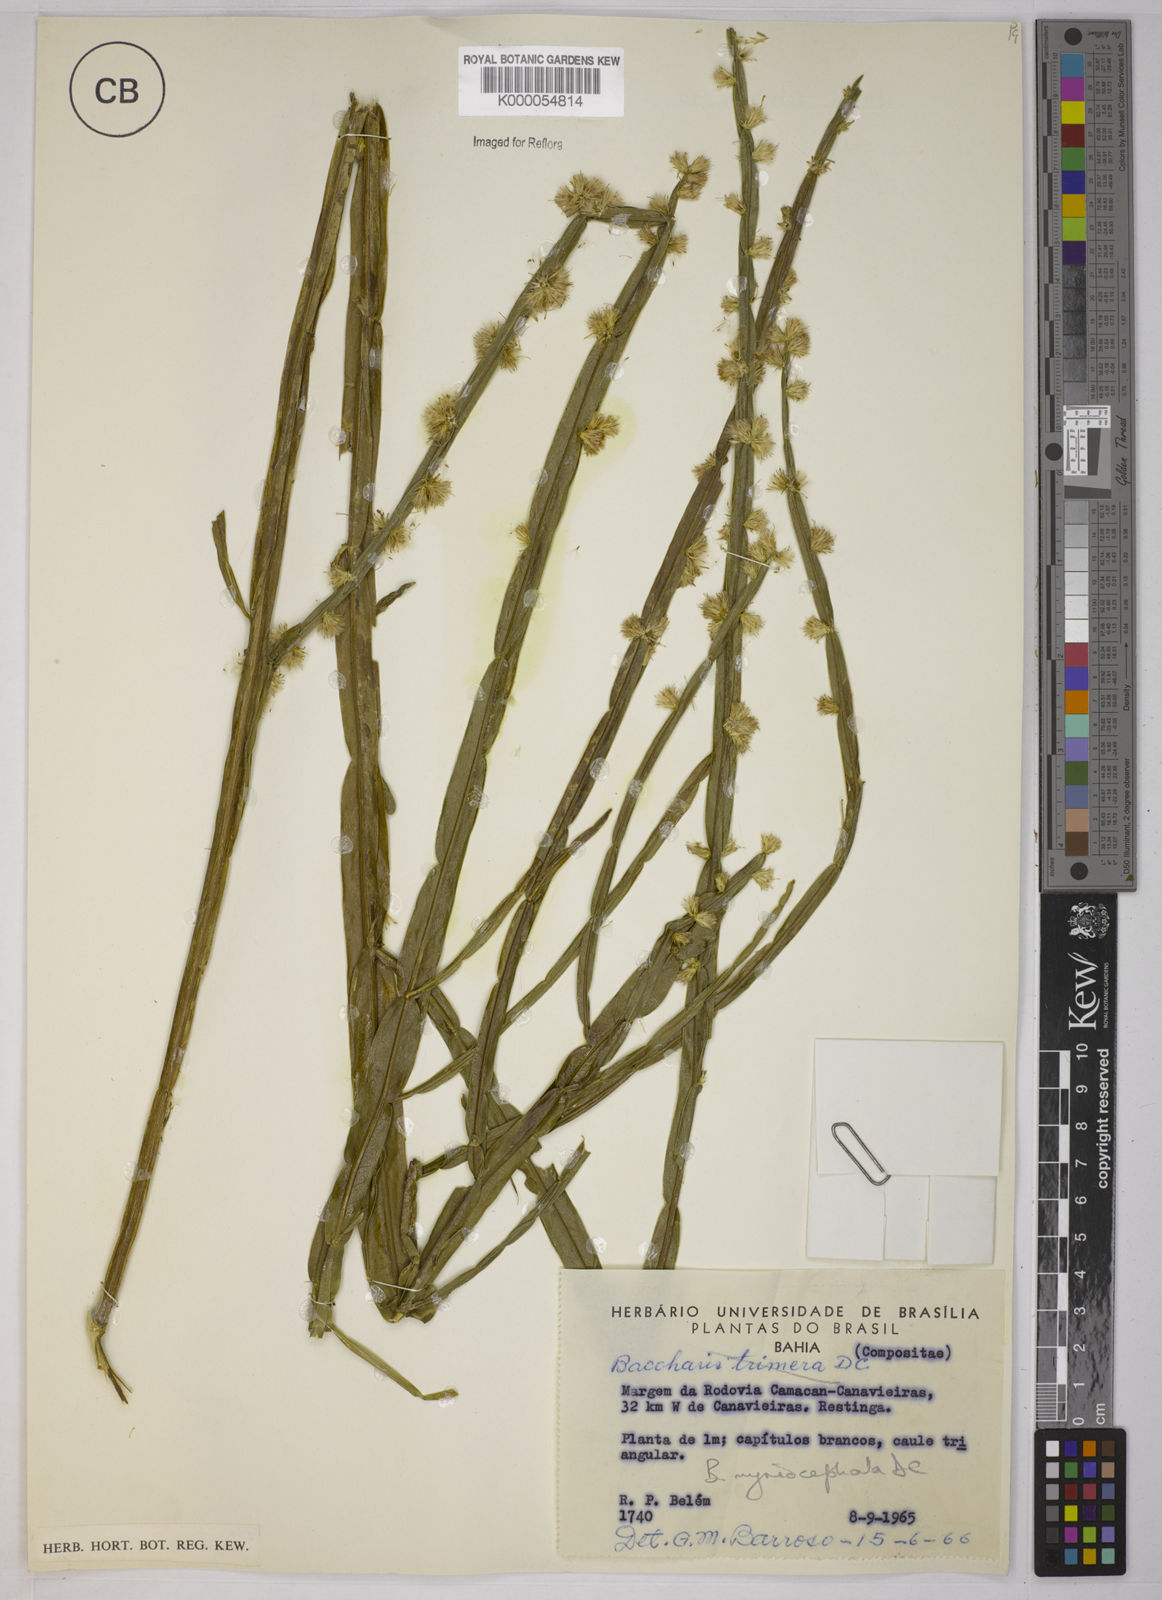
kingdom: Plantae
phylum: Tracheophyta
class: Magnoliopsida
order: Asterales
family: Asteraceae
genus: Baccharis
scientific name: Baccharis myriocephala
